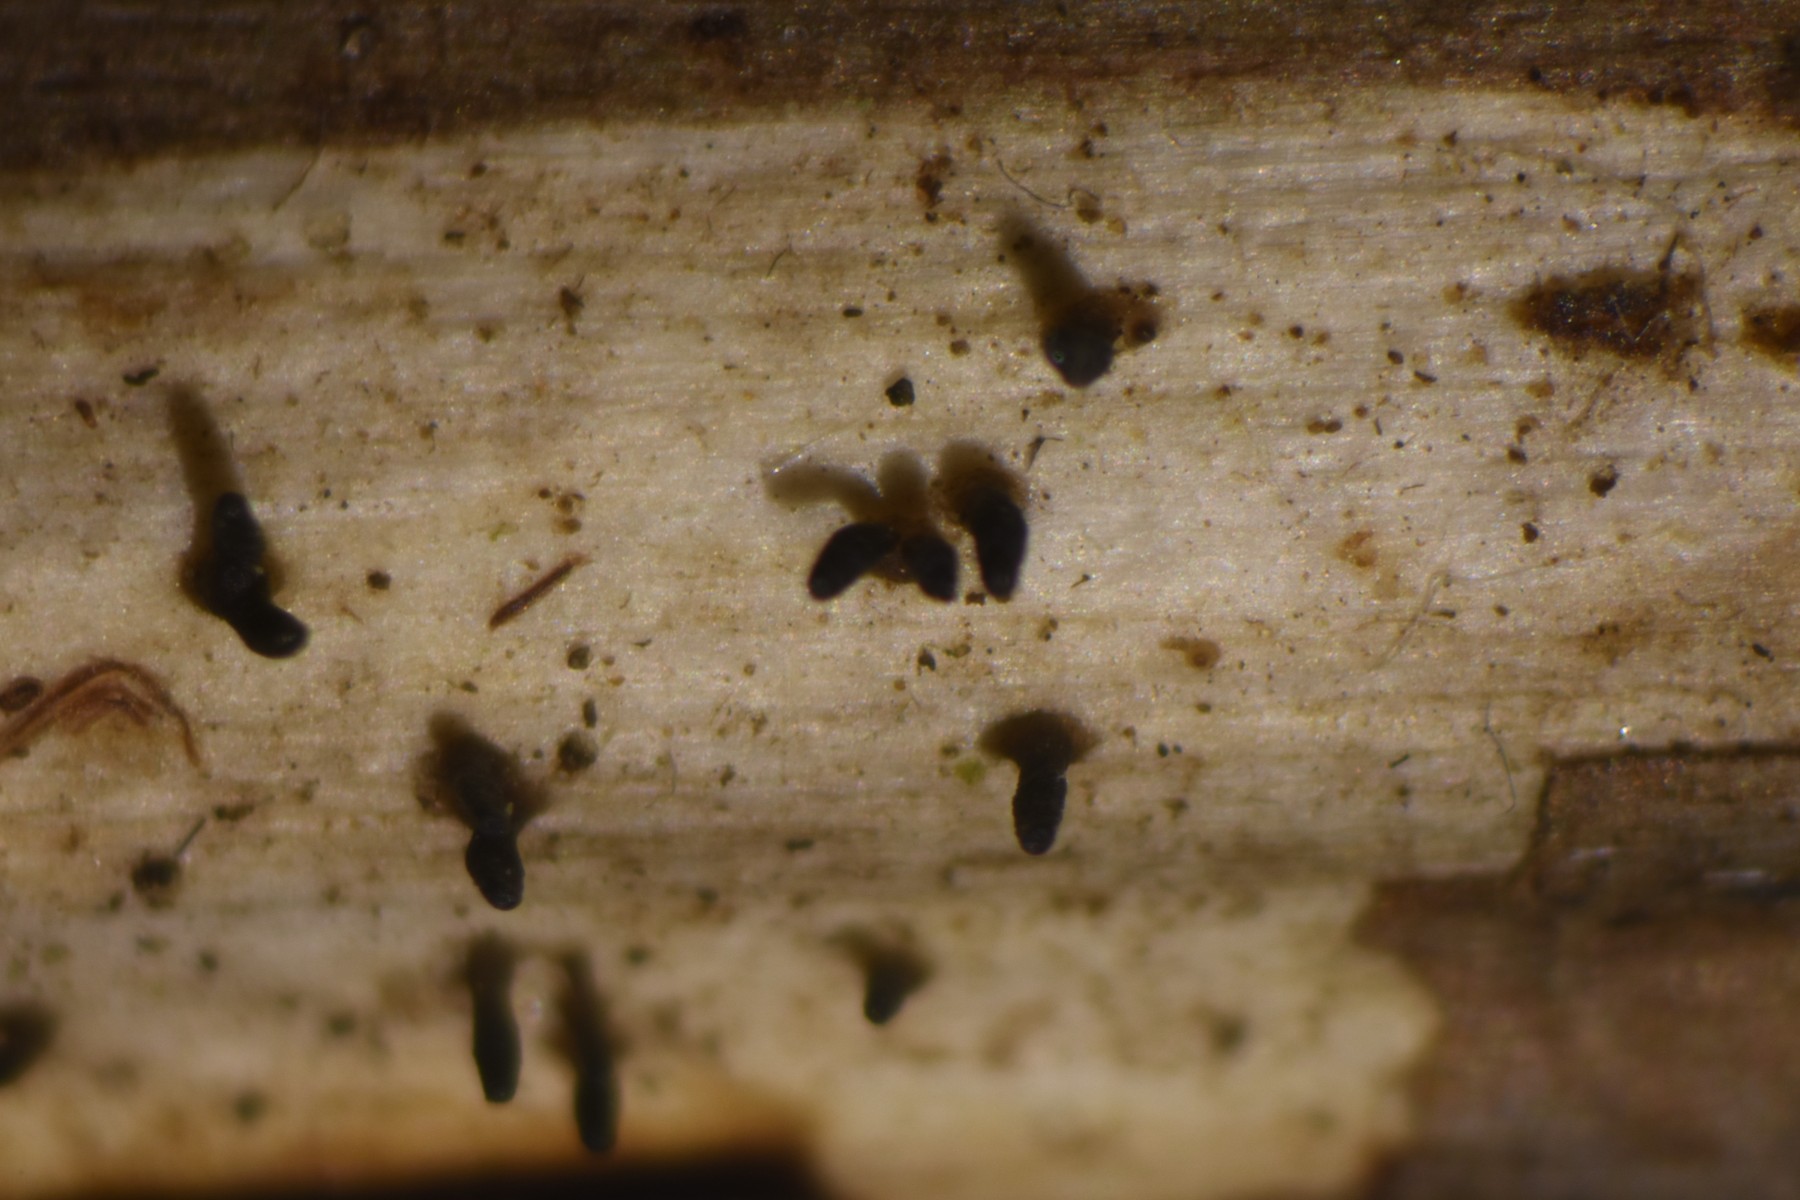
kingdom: Fungi
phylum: Ascomycota
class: Dothideomycetes
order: Acrospermales
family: Acrospermaceae
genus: Acrospermum
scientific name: Acrospermum compressum
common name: nælde-stængeltunge
